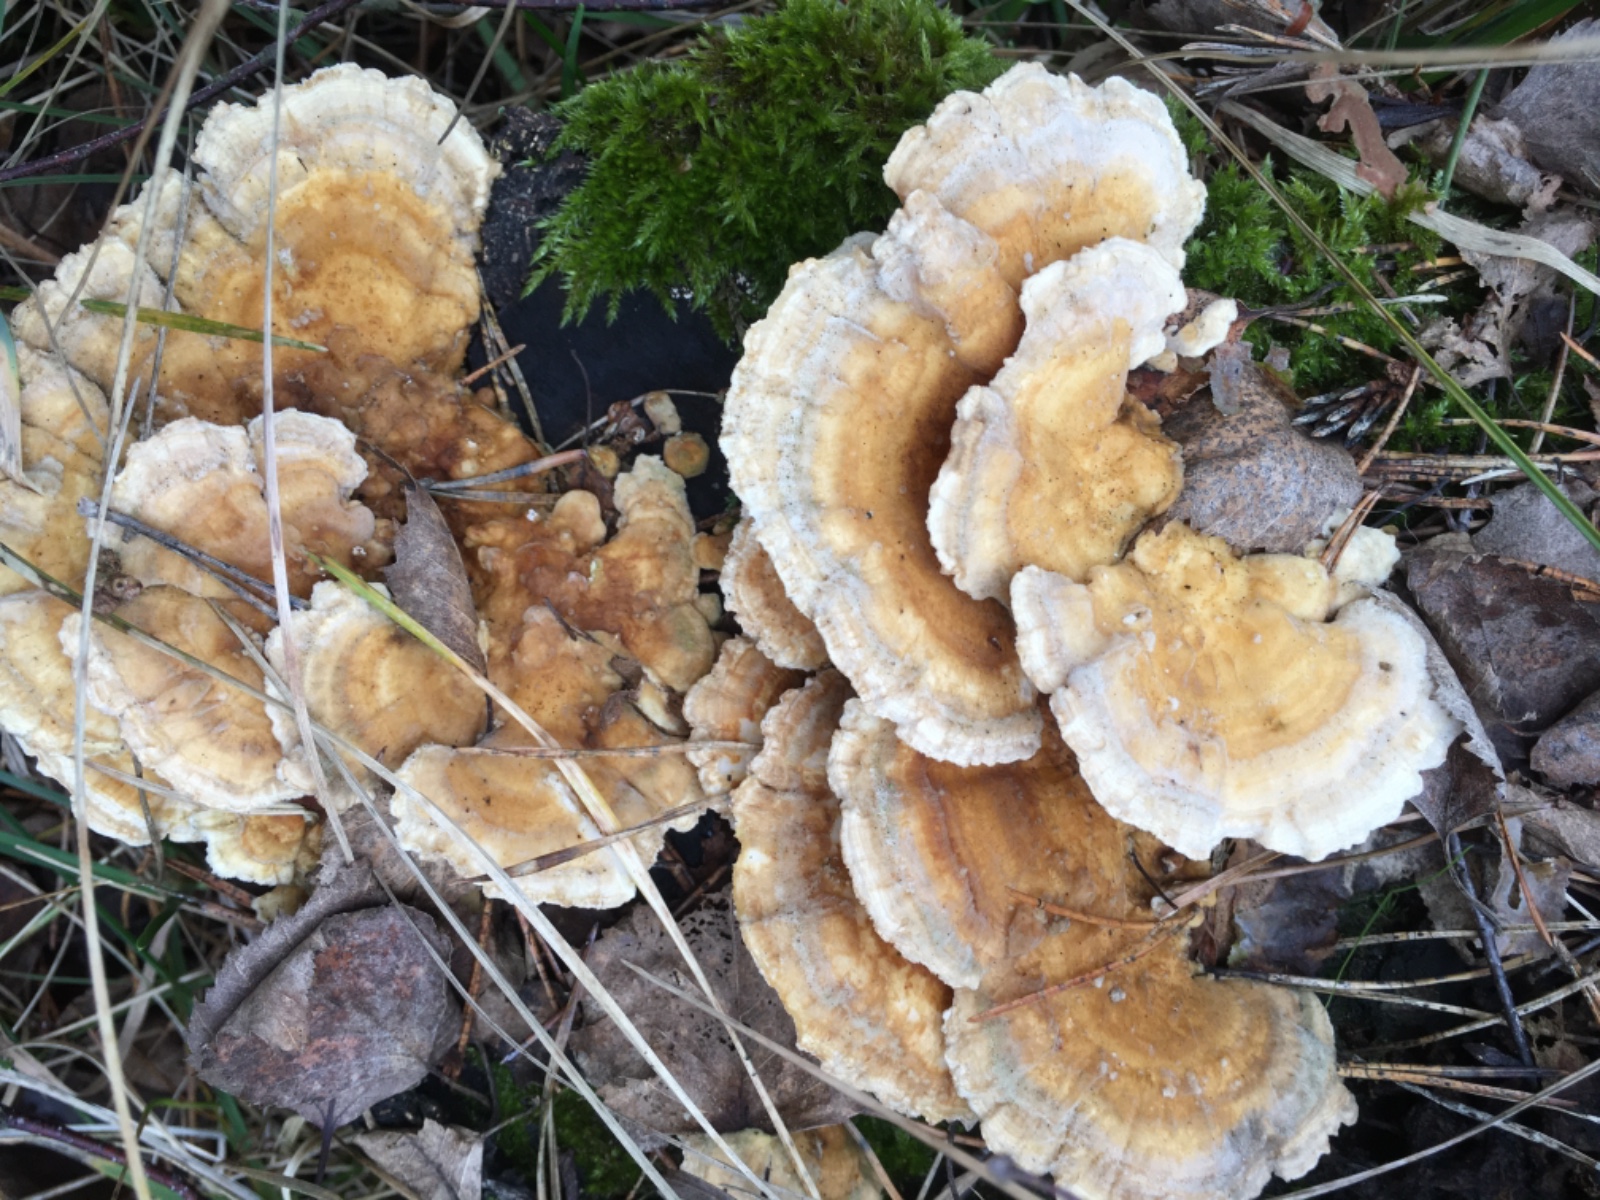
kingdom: Fungi
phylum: Basidiomycota
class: Agaricomycetes
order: Polyporales
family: Polyporaceae
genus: Trametes
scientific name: Trametes ochracea
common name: bæltet læderporesvamp
